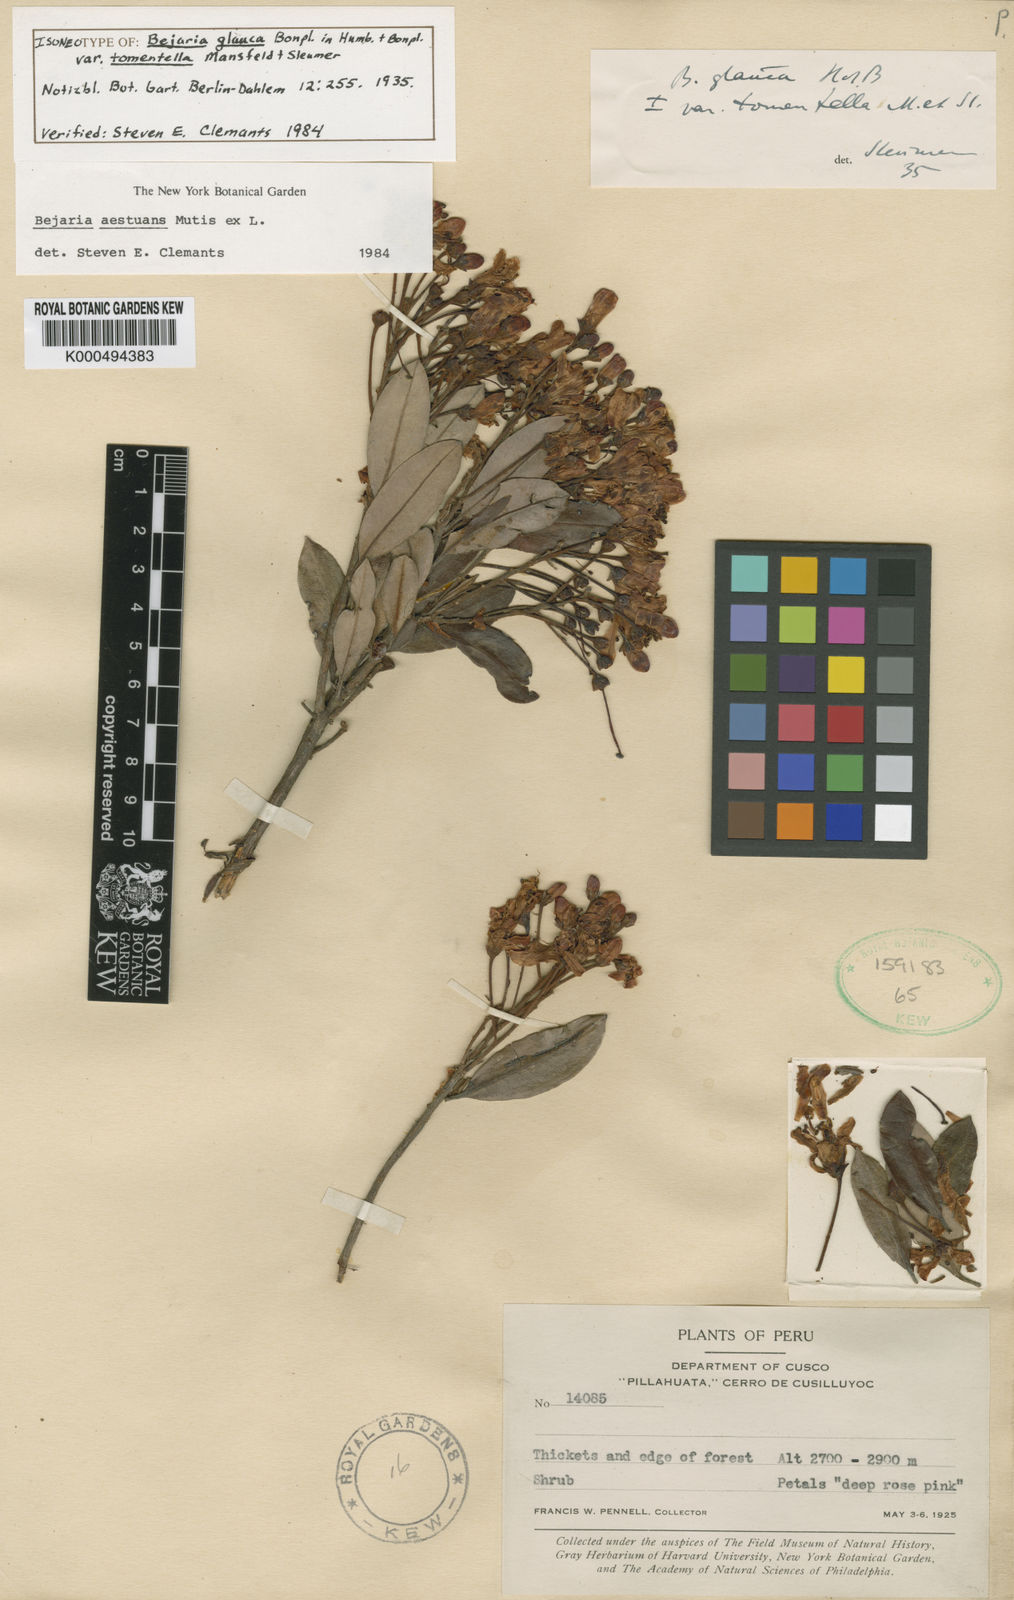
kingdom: Plantae
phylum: Tracheophyta
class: Magnoliopsida
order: Ericales
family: Ericaceae
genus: Bejaria
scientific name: Bejaria
